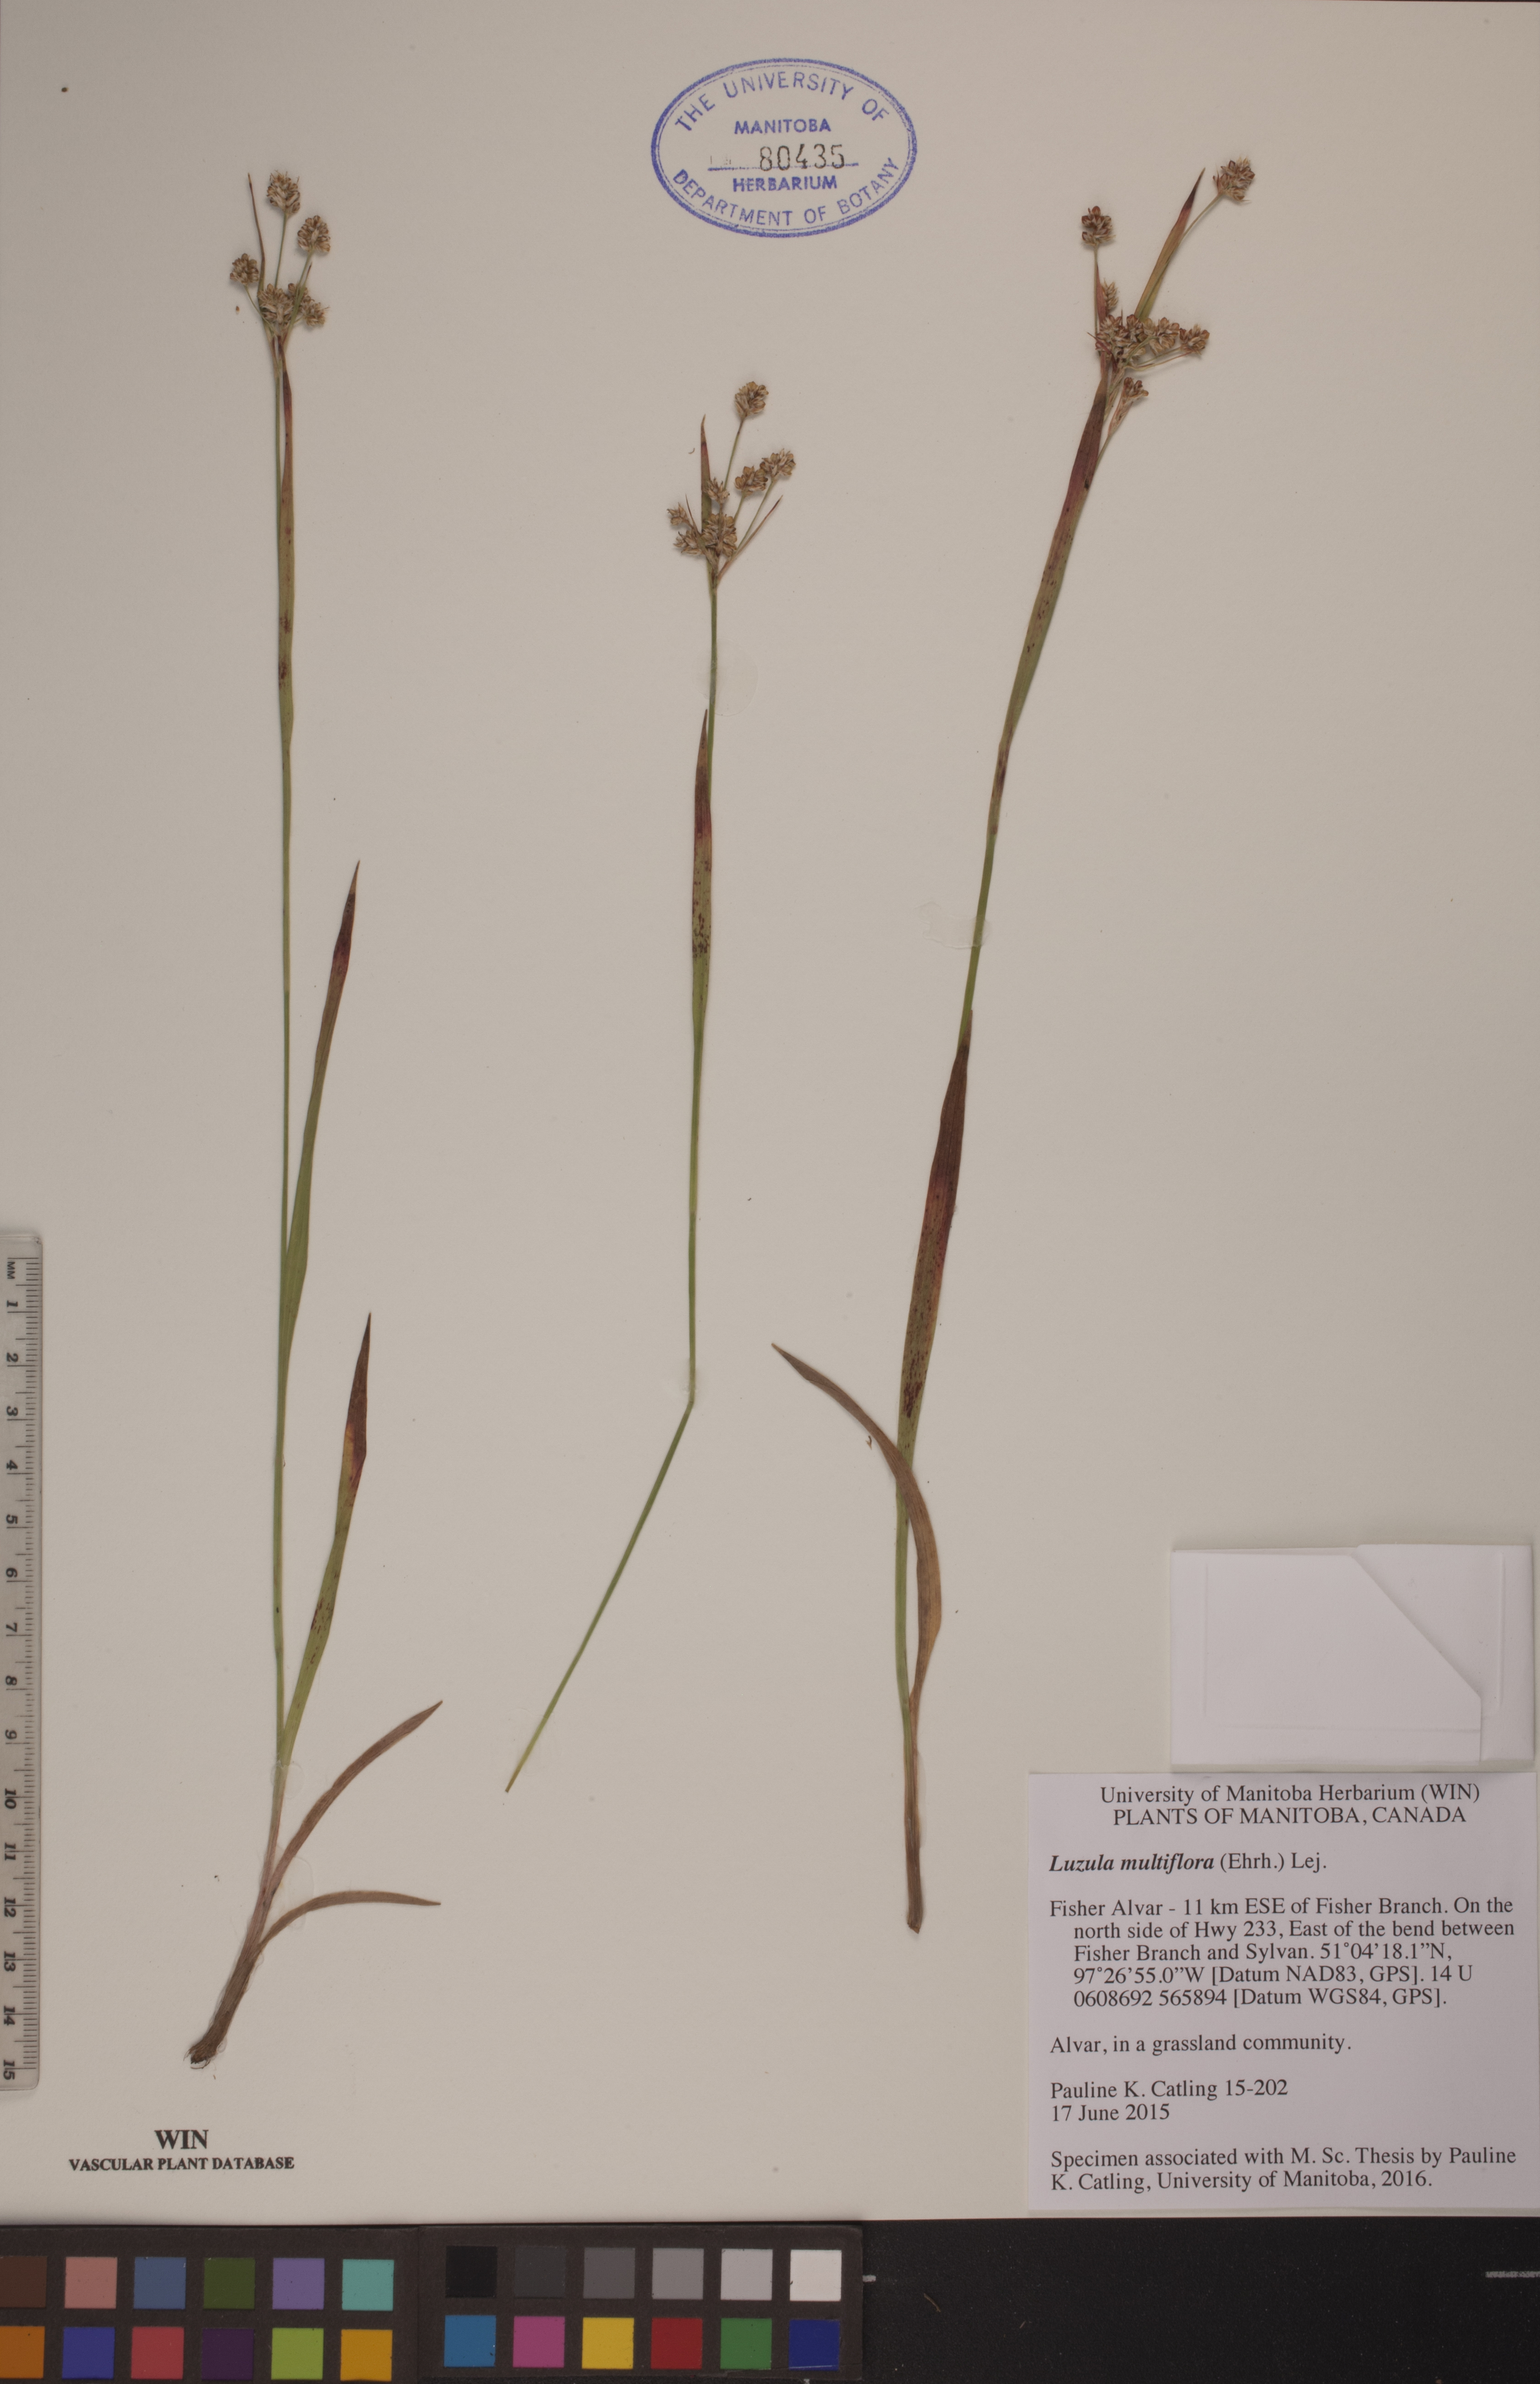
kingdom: Plantae
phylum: Tracheophyta
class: Liliopsida
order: Poales
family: Juncaceae
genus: Luzula
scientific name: Luzula multiflora
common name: Heath wood-rush
